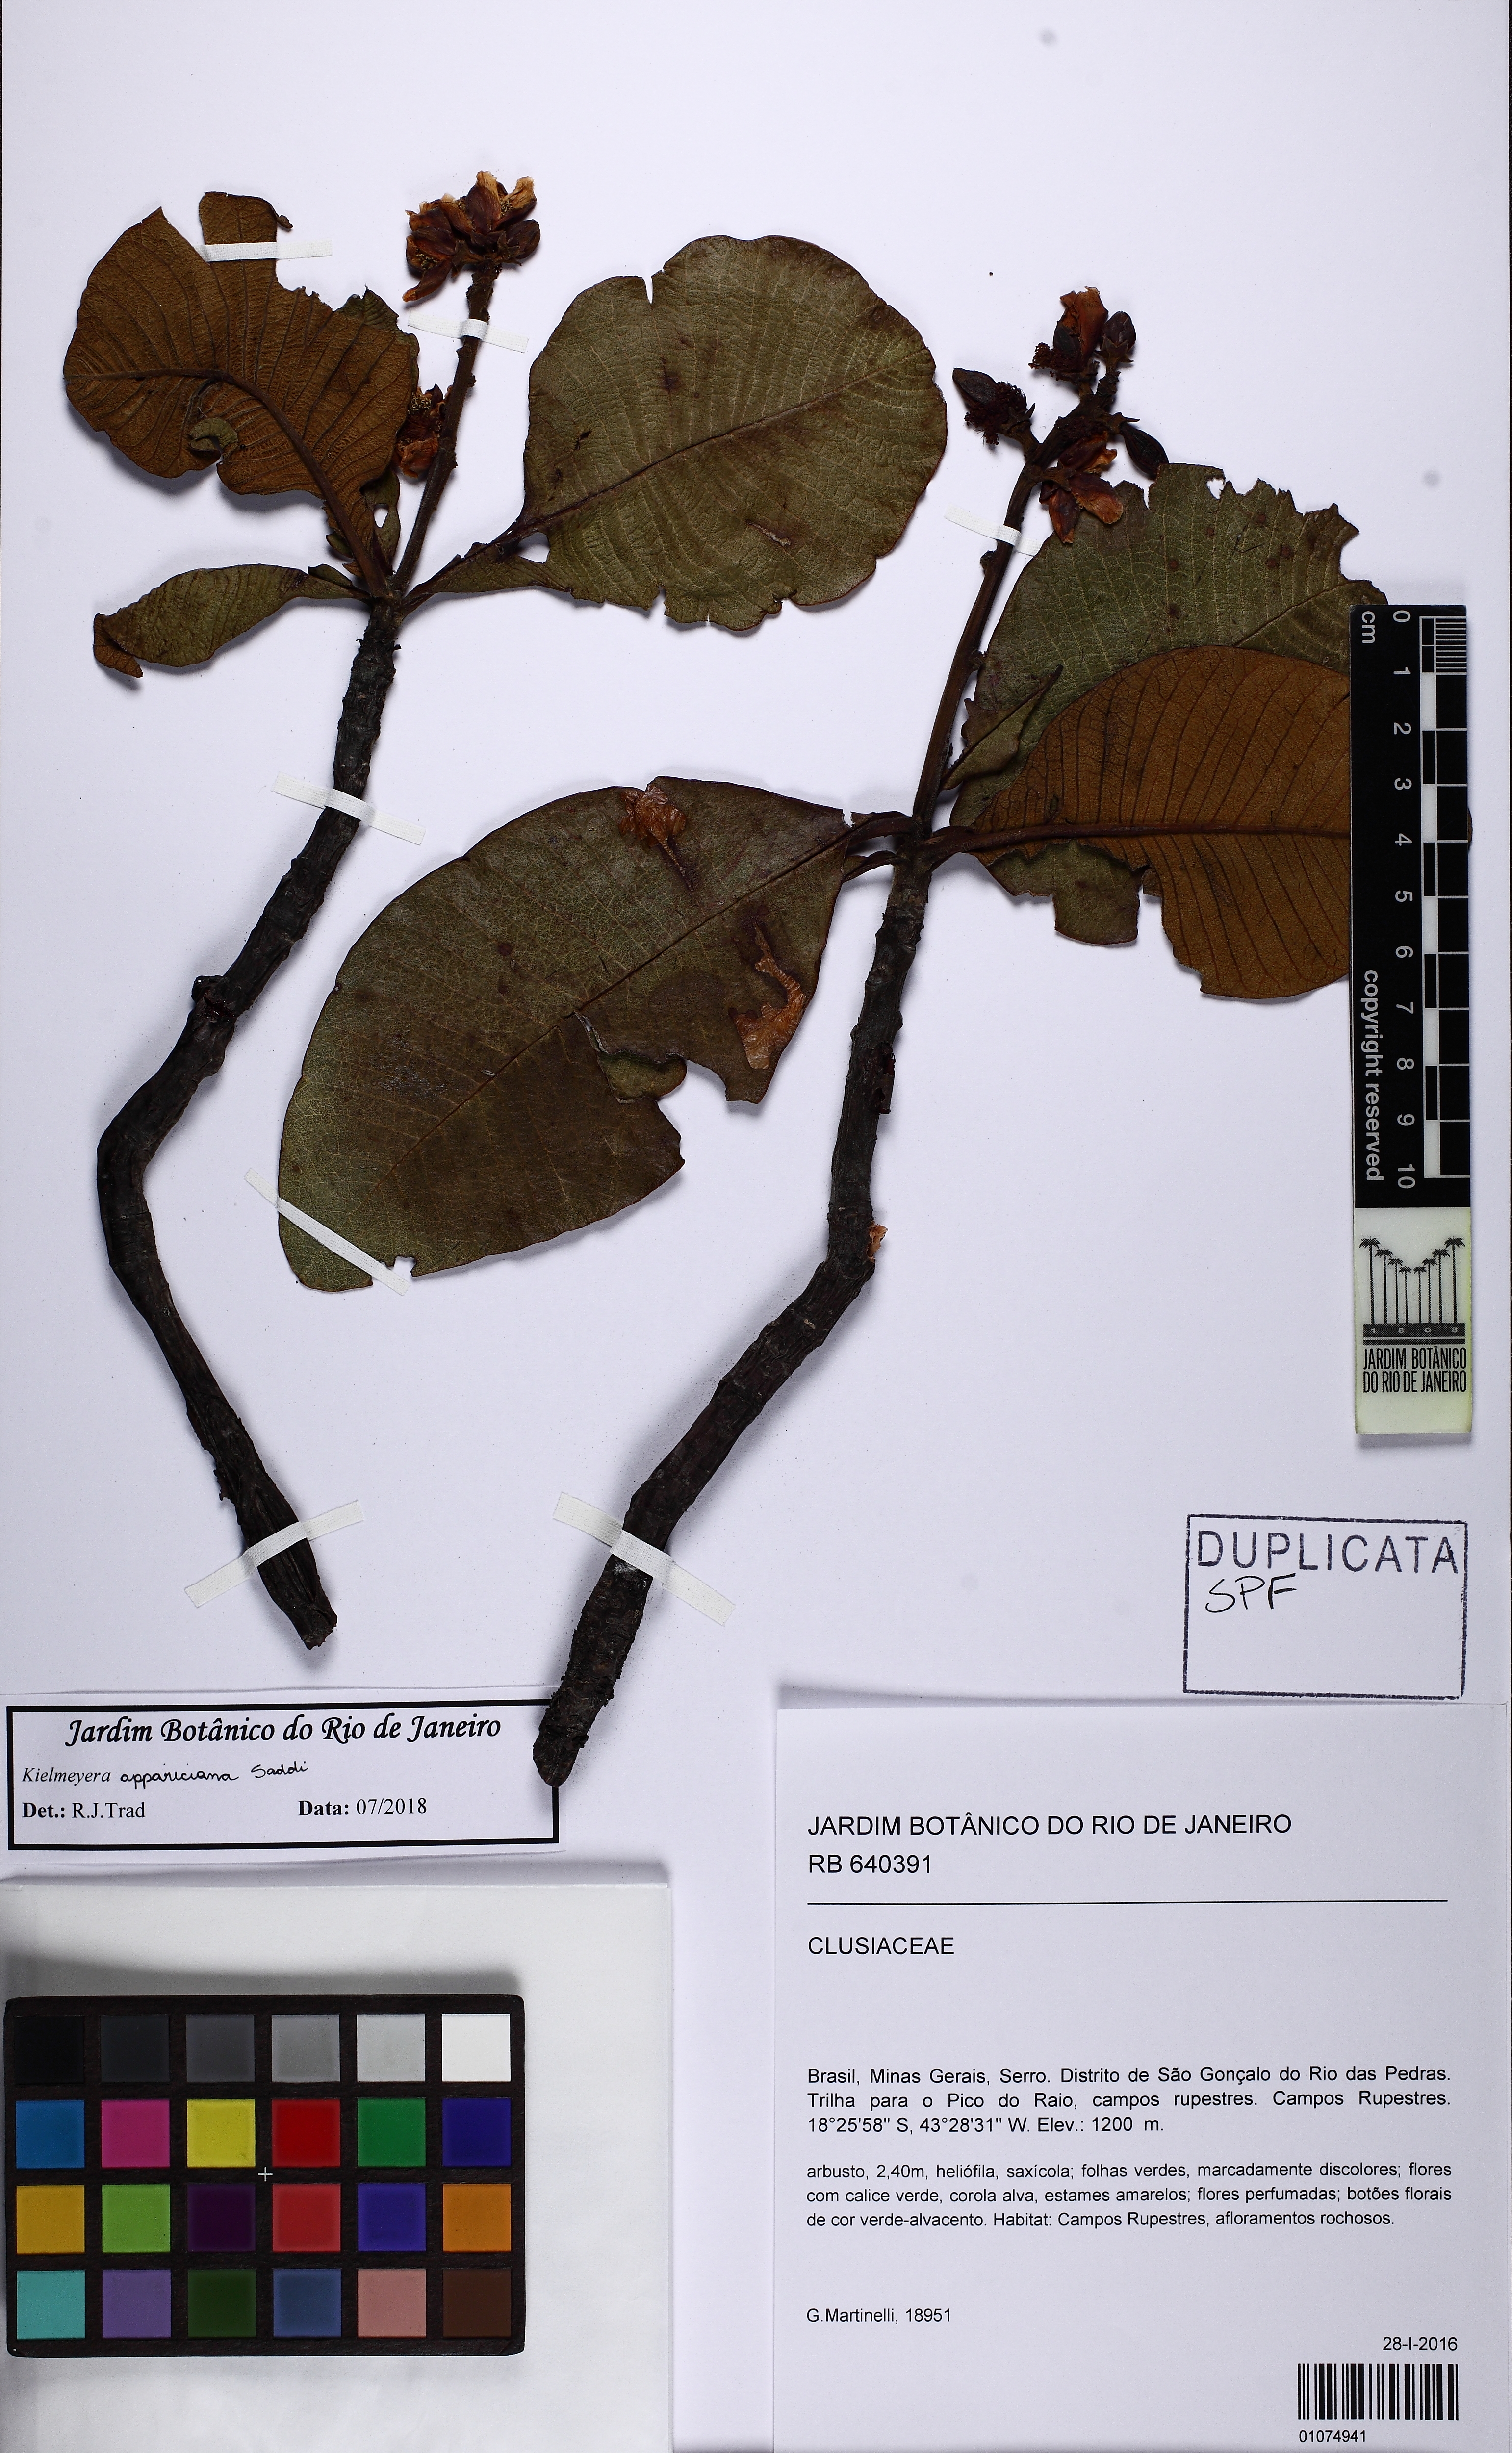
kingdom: Plantae
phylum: Tracheophyta
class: Magnoliopsida
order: Malpighiales
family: Calophyllaceae
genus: Kielmeyera
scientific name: Kielmeyera appariciana
